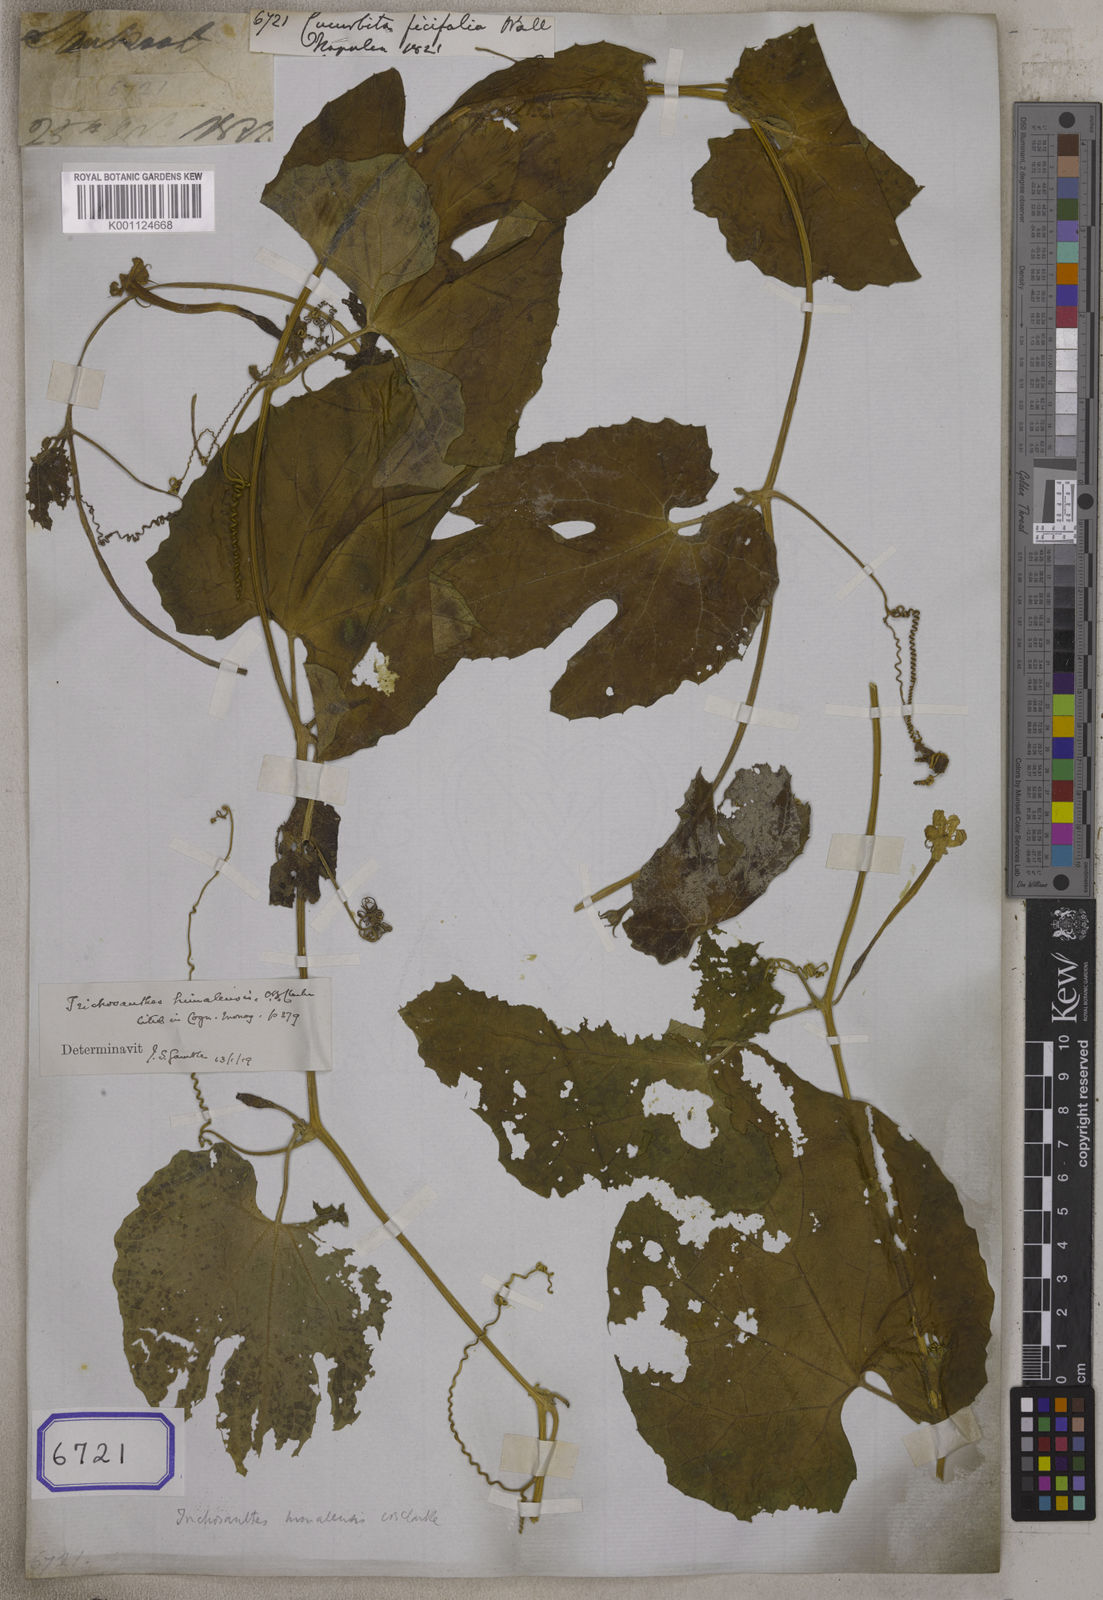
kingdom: Plantae
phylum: Tracheophyta
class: Magnoliopsida
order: Cucurbitales
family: Cucurbitaceae
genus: Cucurbita
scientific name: Cucurbita
